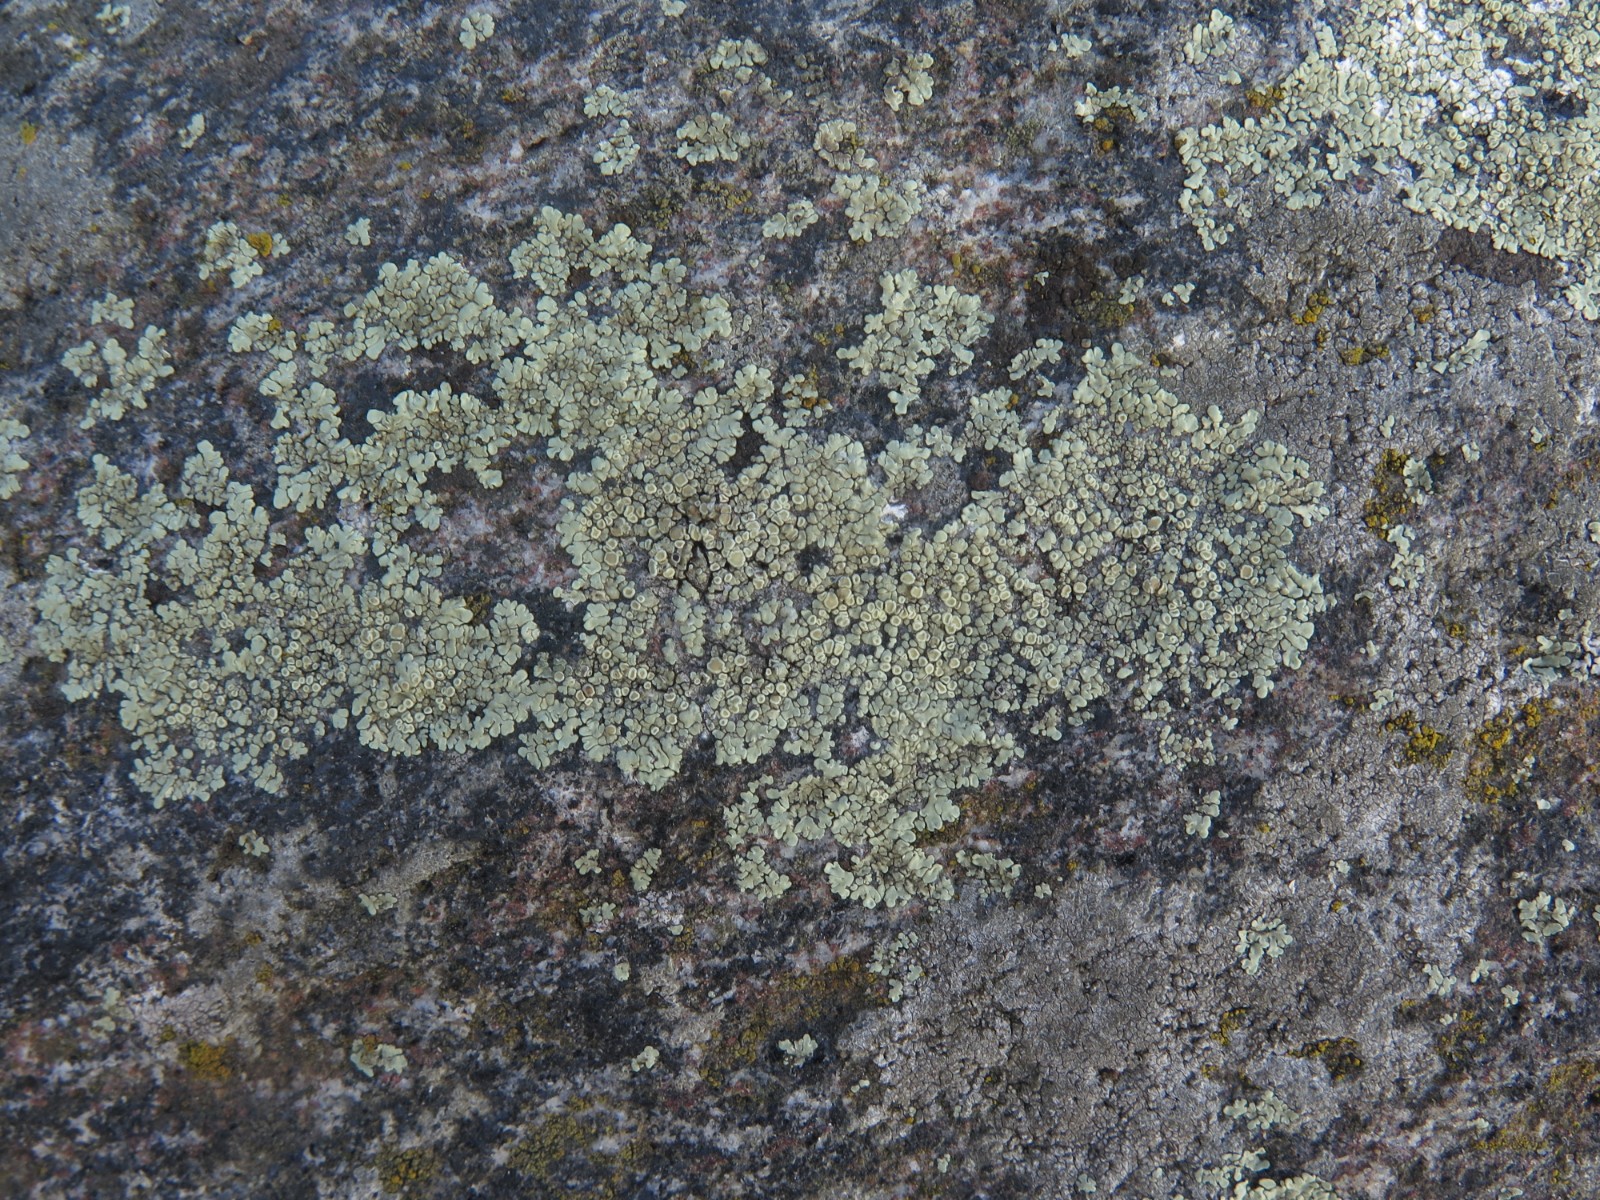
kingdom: Fungi
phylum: Ascomycota
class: Lecanoromycetes
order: Lecanorales
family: Lecanoraceae
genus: Protoparmeliopsis
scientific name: Protoparmeliopsis muralis
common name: randfliget kantskivelav
